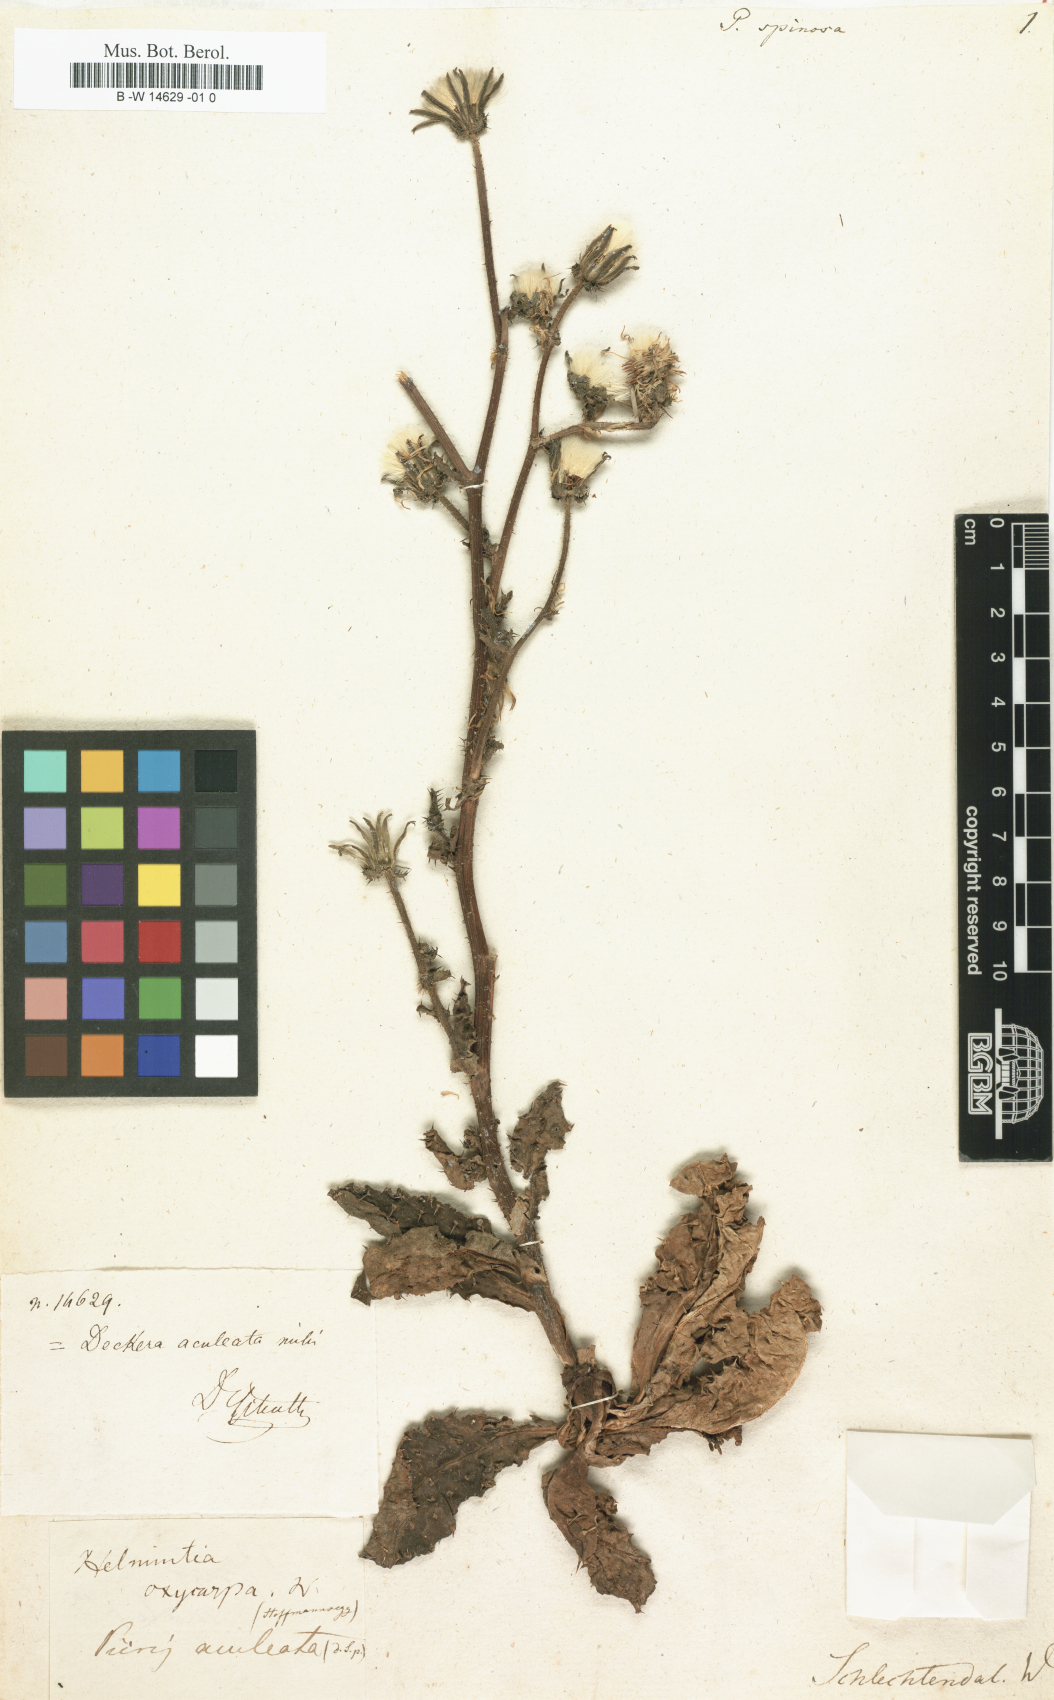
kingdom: Plantae
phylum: Tracheophyta
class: Magnoliopsida
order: Asterales
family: Asteraceae
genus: Helminthotheca
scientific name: Helminthotheca aculeata
